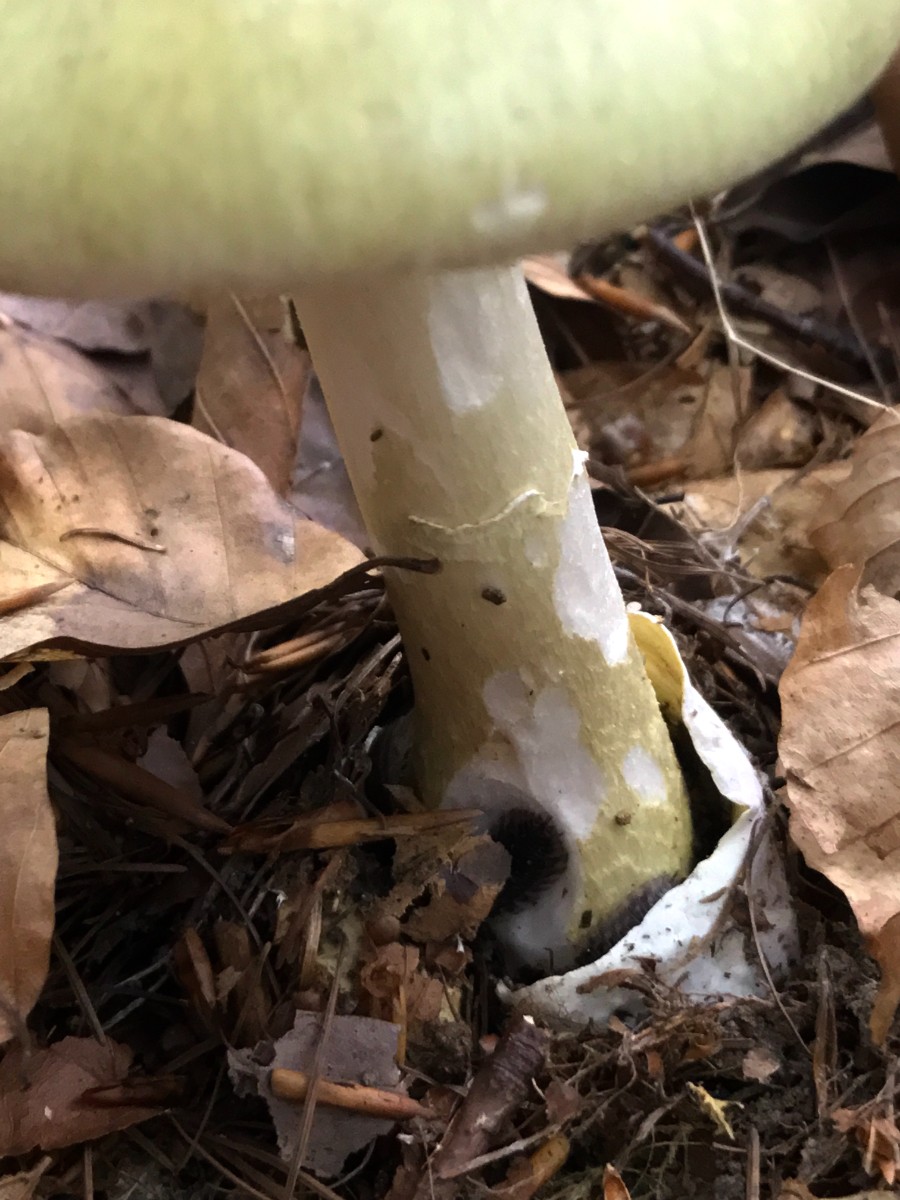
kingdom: Fungi
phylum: Basidiomycota
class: Agaricomycetes
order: Agaricales
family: Amanitaceae
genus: Amanita
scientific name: Amanita phalloides
